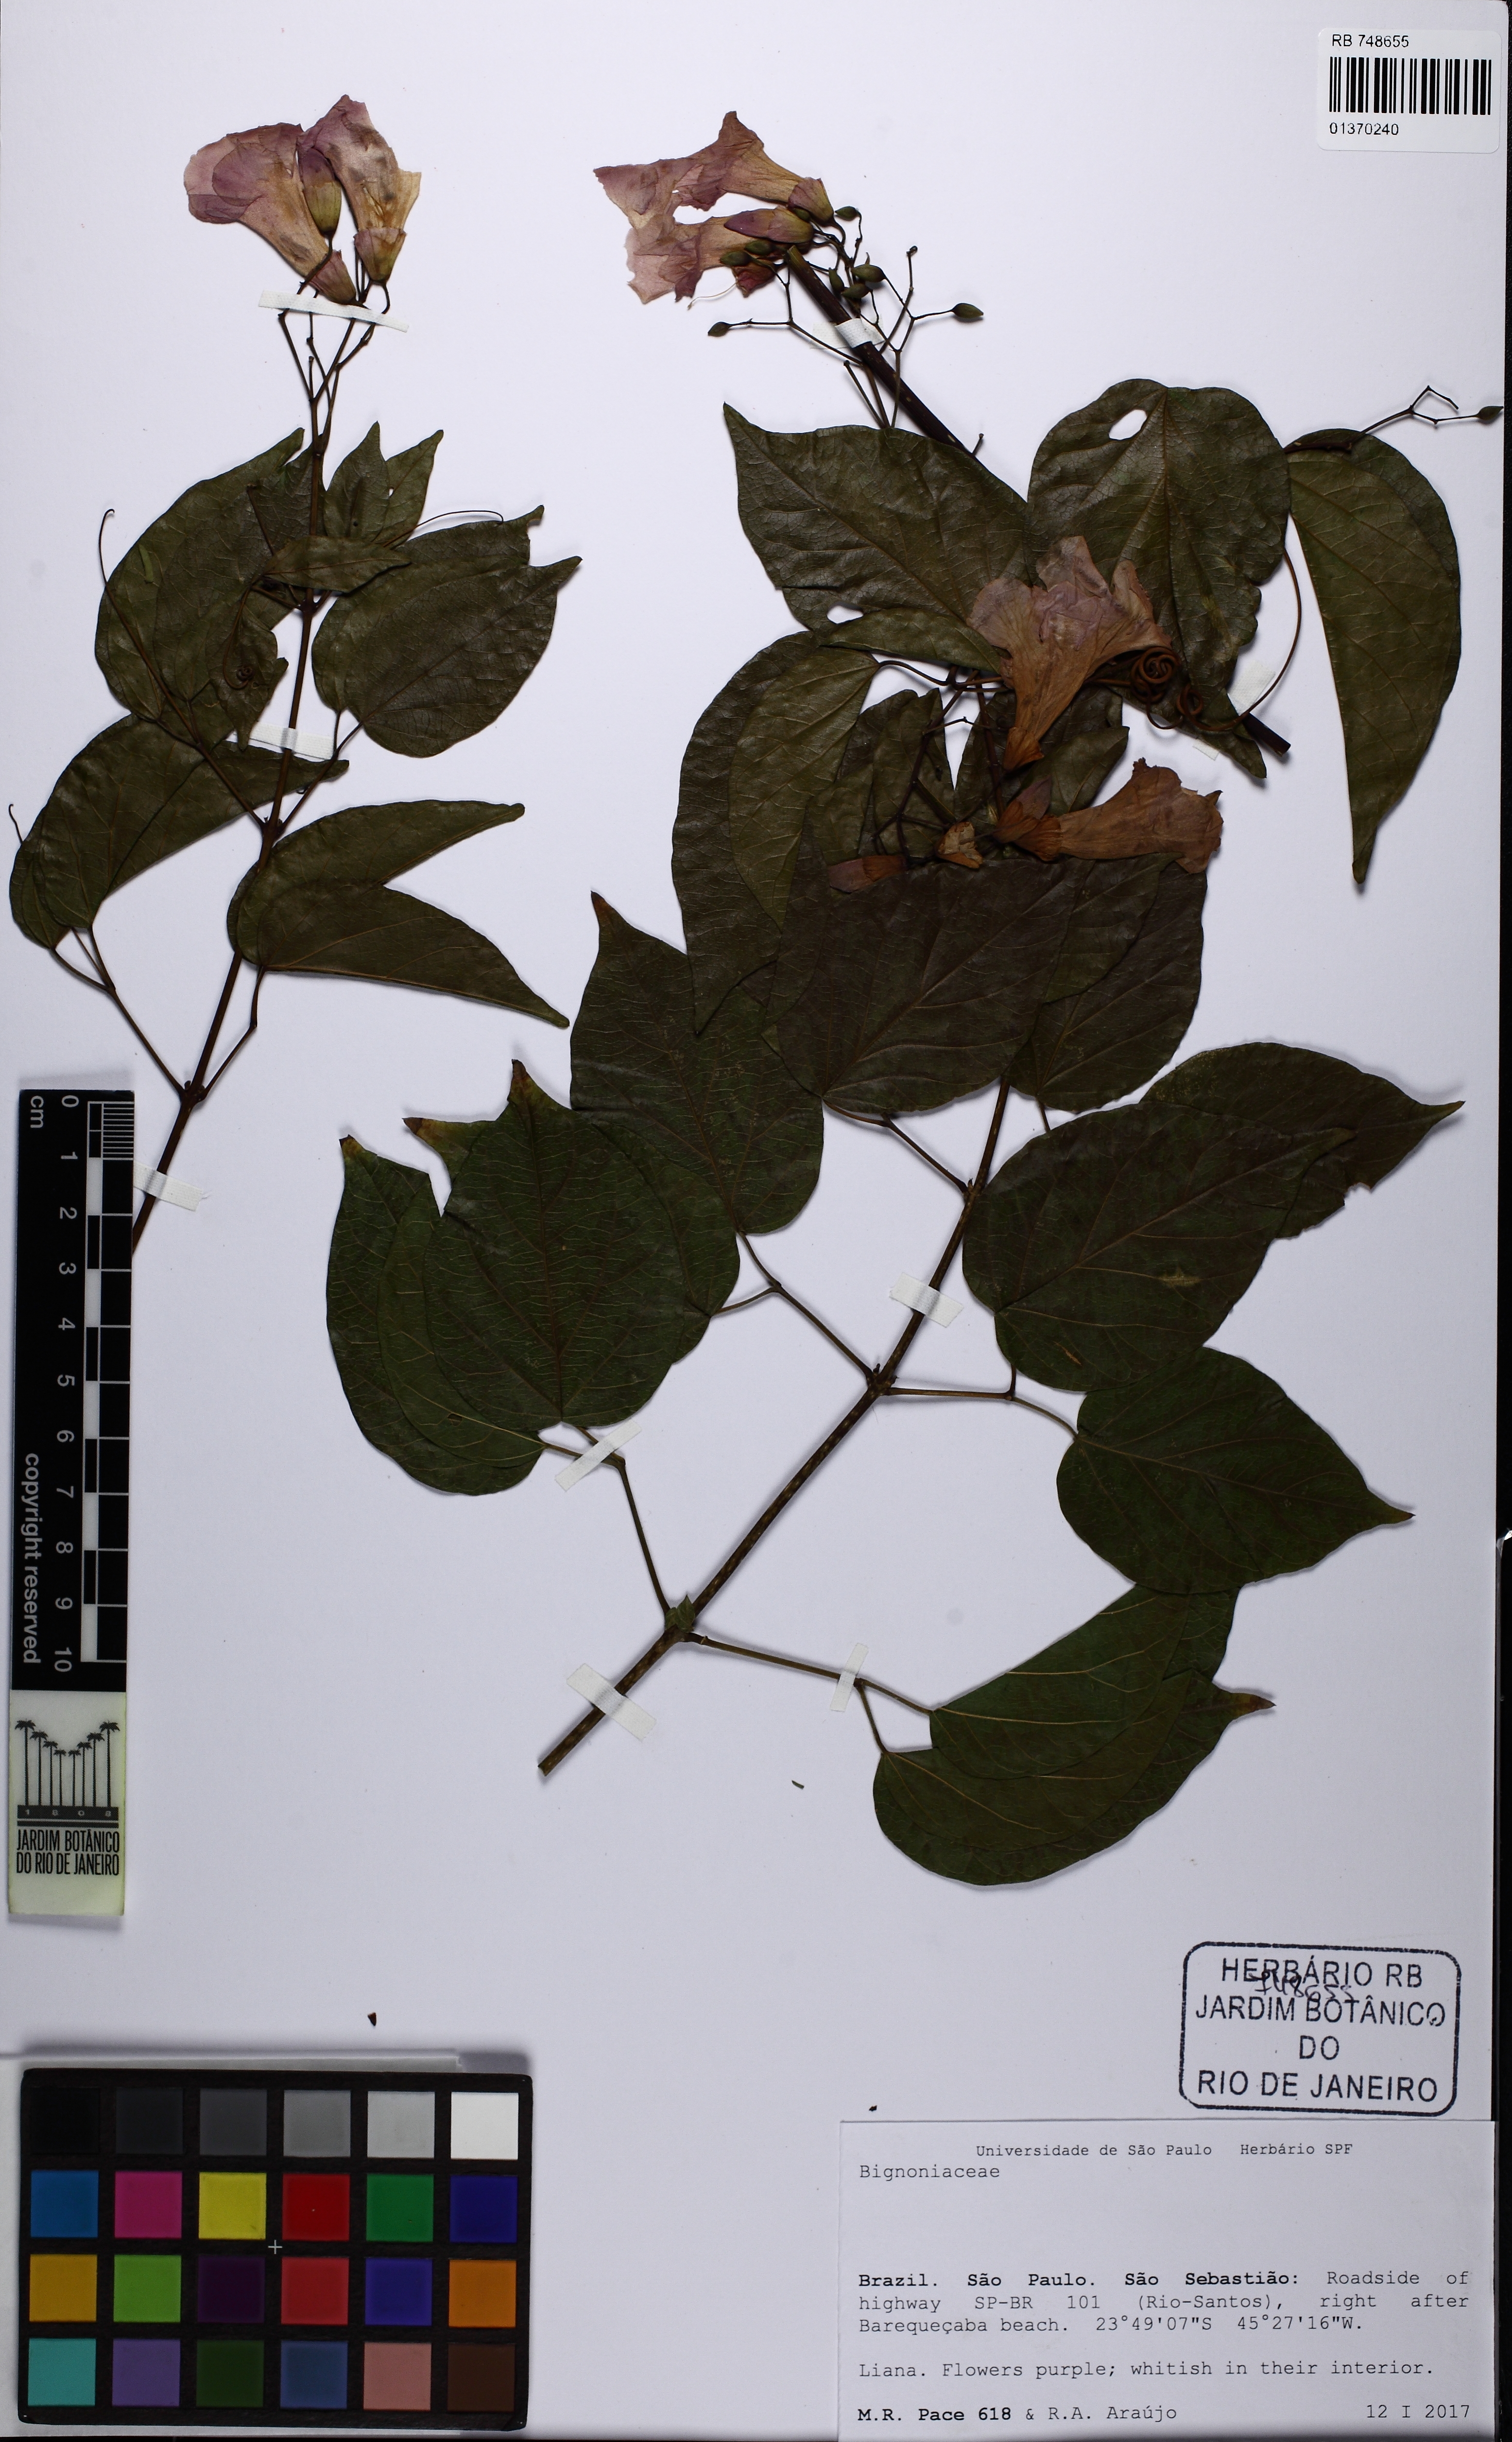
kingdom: Plantae
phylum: Tracheophyta
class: Magnoliopsida
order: Lamiales
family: Bignoniaceae
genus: Tanaecium
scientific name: Tanaecium selloi
